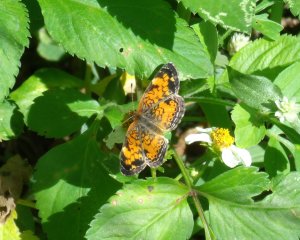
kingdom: Animalia
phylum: Arthropoda
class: Insecta
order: Lepidoptera
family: Nymphalidae
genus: Phyciodes
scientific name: Phyciodes tharos
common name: Pearl Crescent
